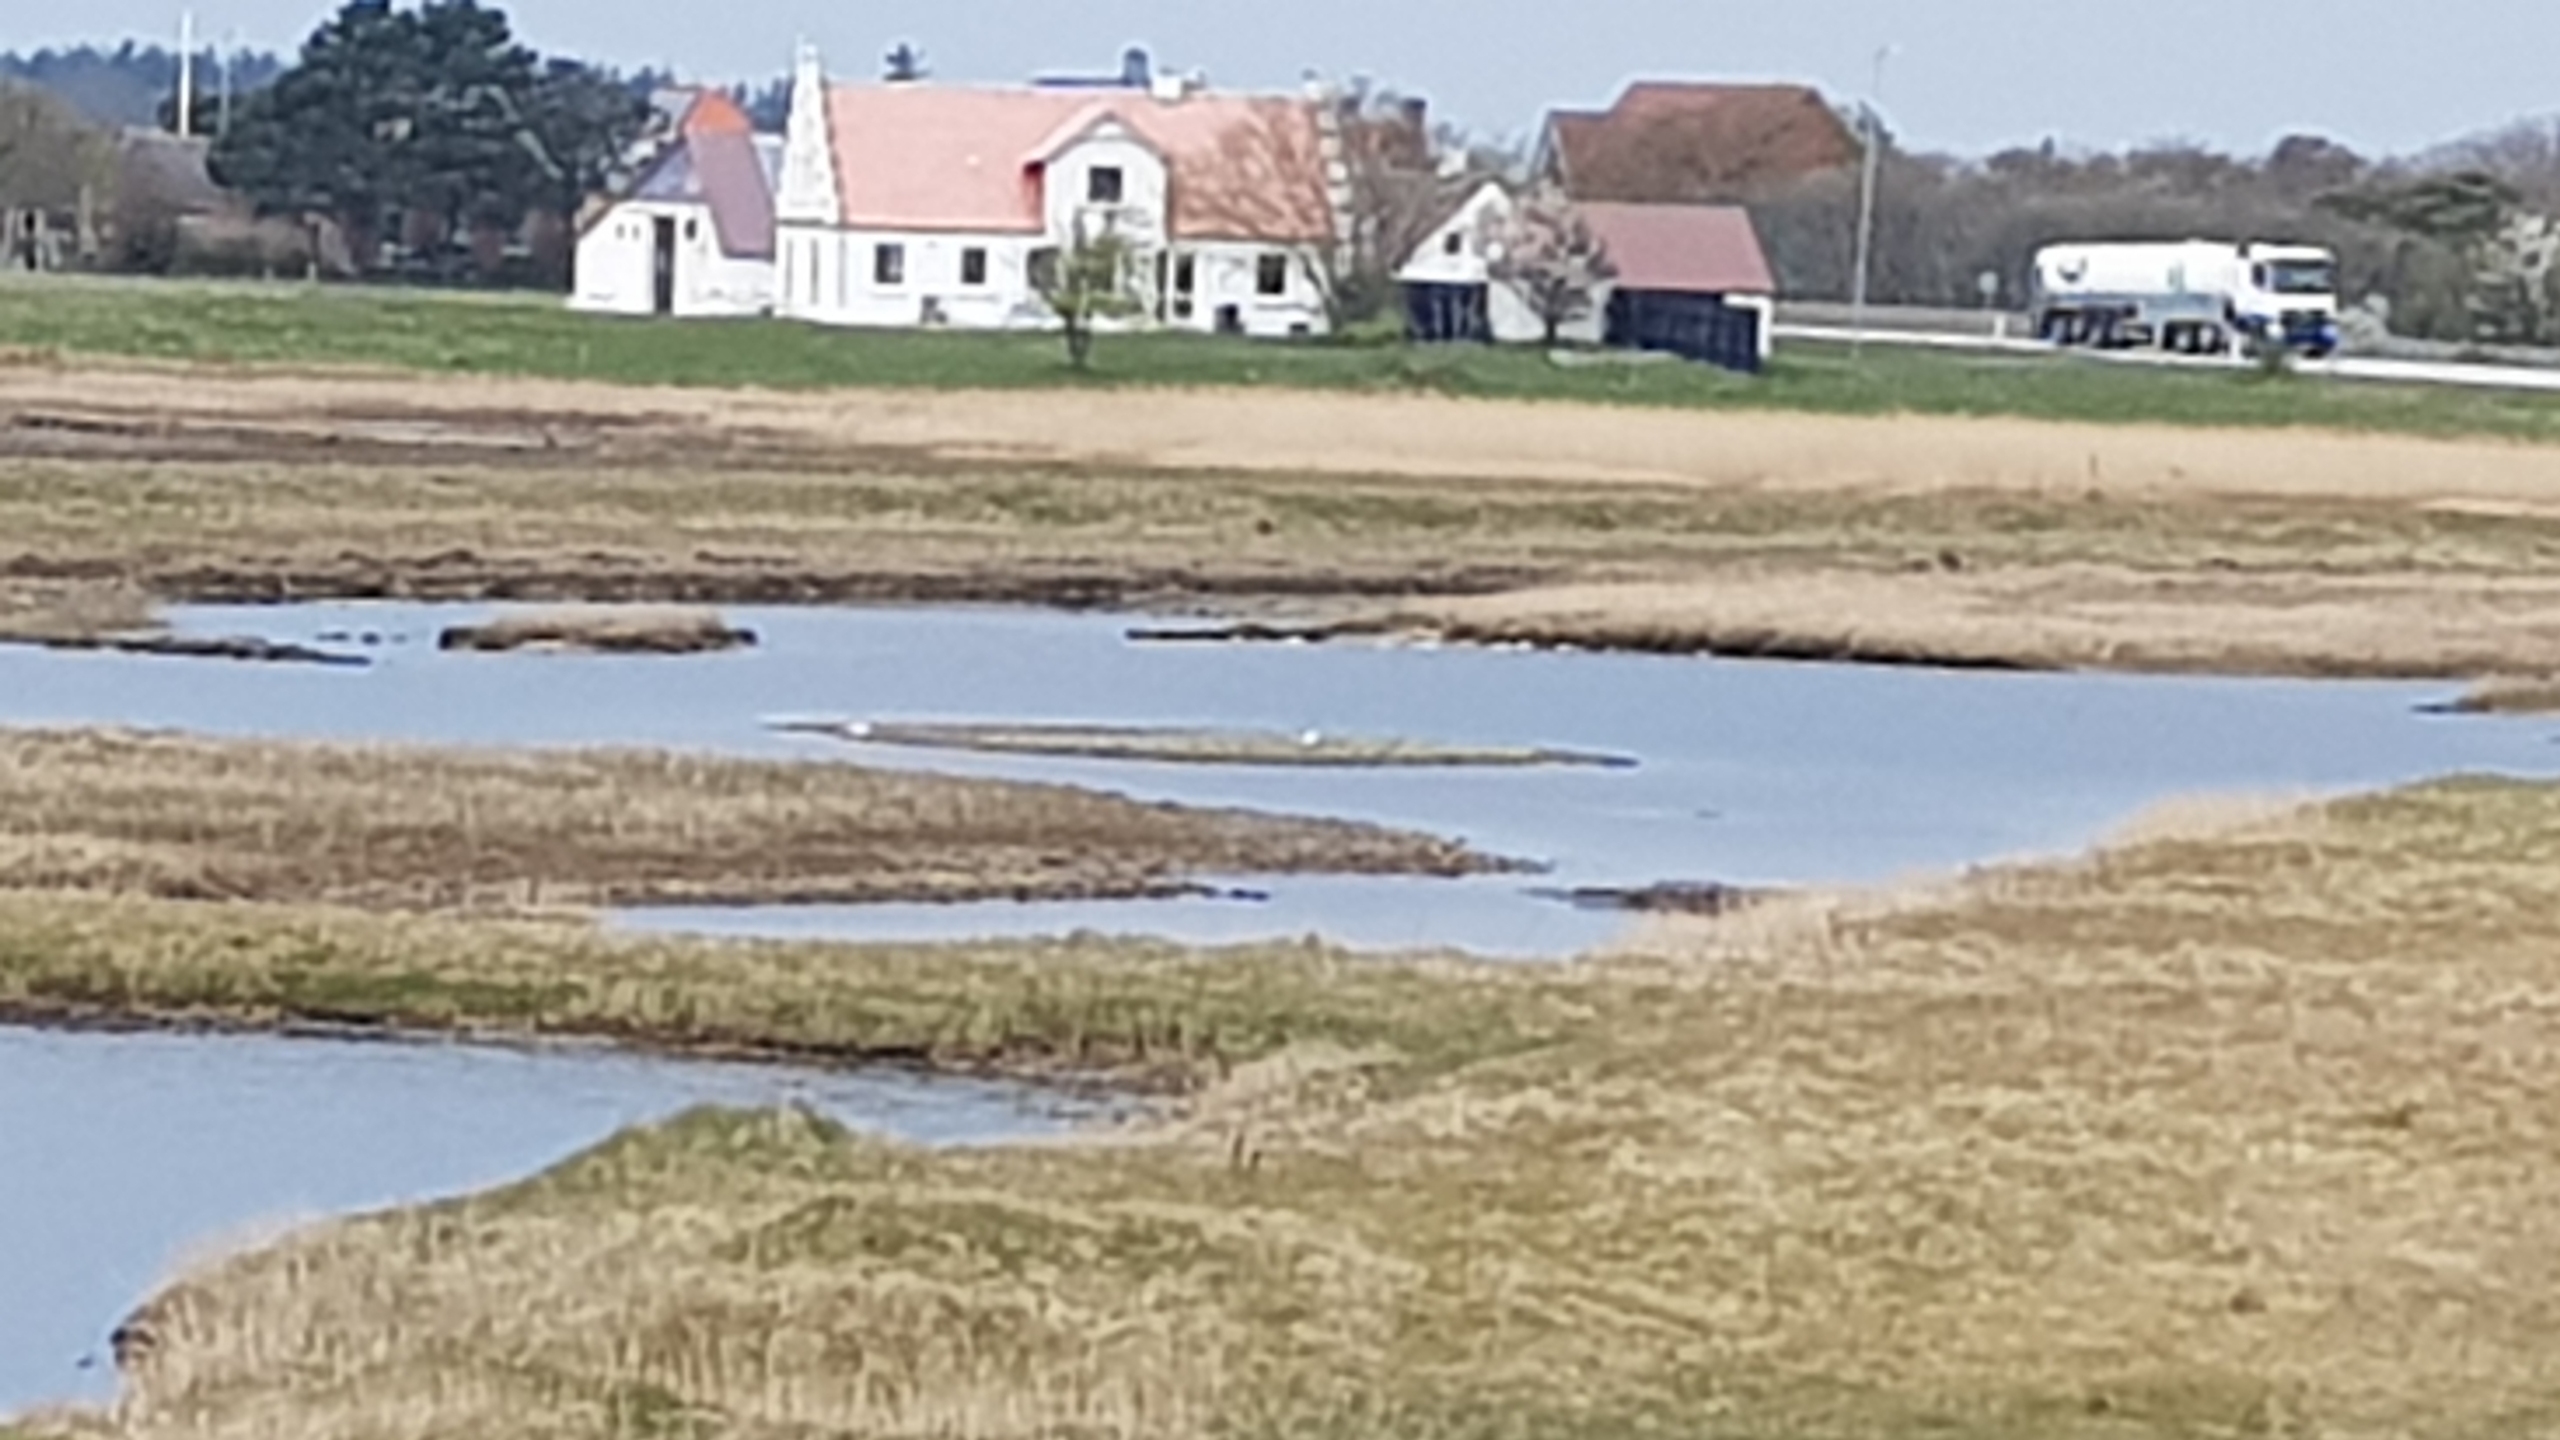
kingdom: Animalia
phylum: Chordata
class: Aves
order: Charadriiformes
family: Recurvirostridae
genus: Recurvirostra
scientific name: Recurvirostra avosetta
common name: Klyde
